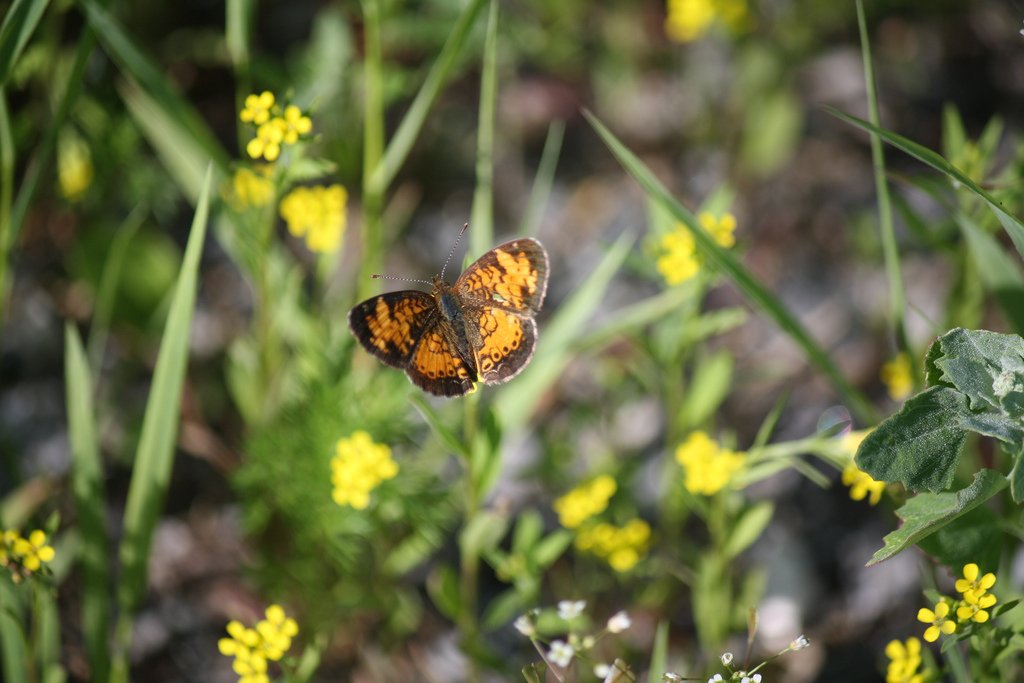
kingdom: Animalia
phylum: Arthropoda
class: Insecta
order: Lepidoptera
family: Nymphalidae
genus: Phyciodes
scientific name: Phyciodes tharos
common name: Northern Crescent
